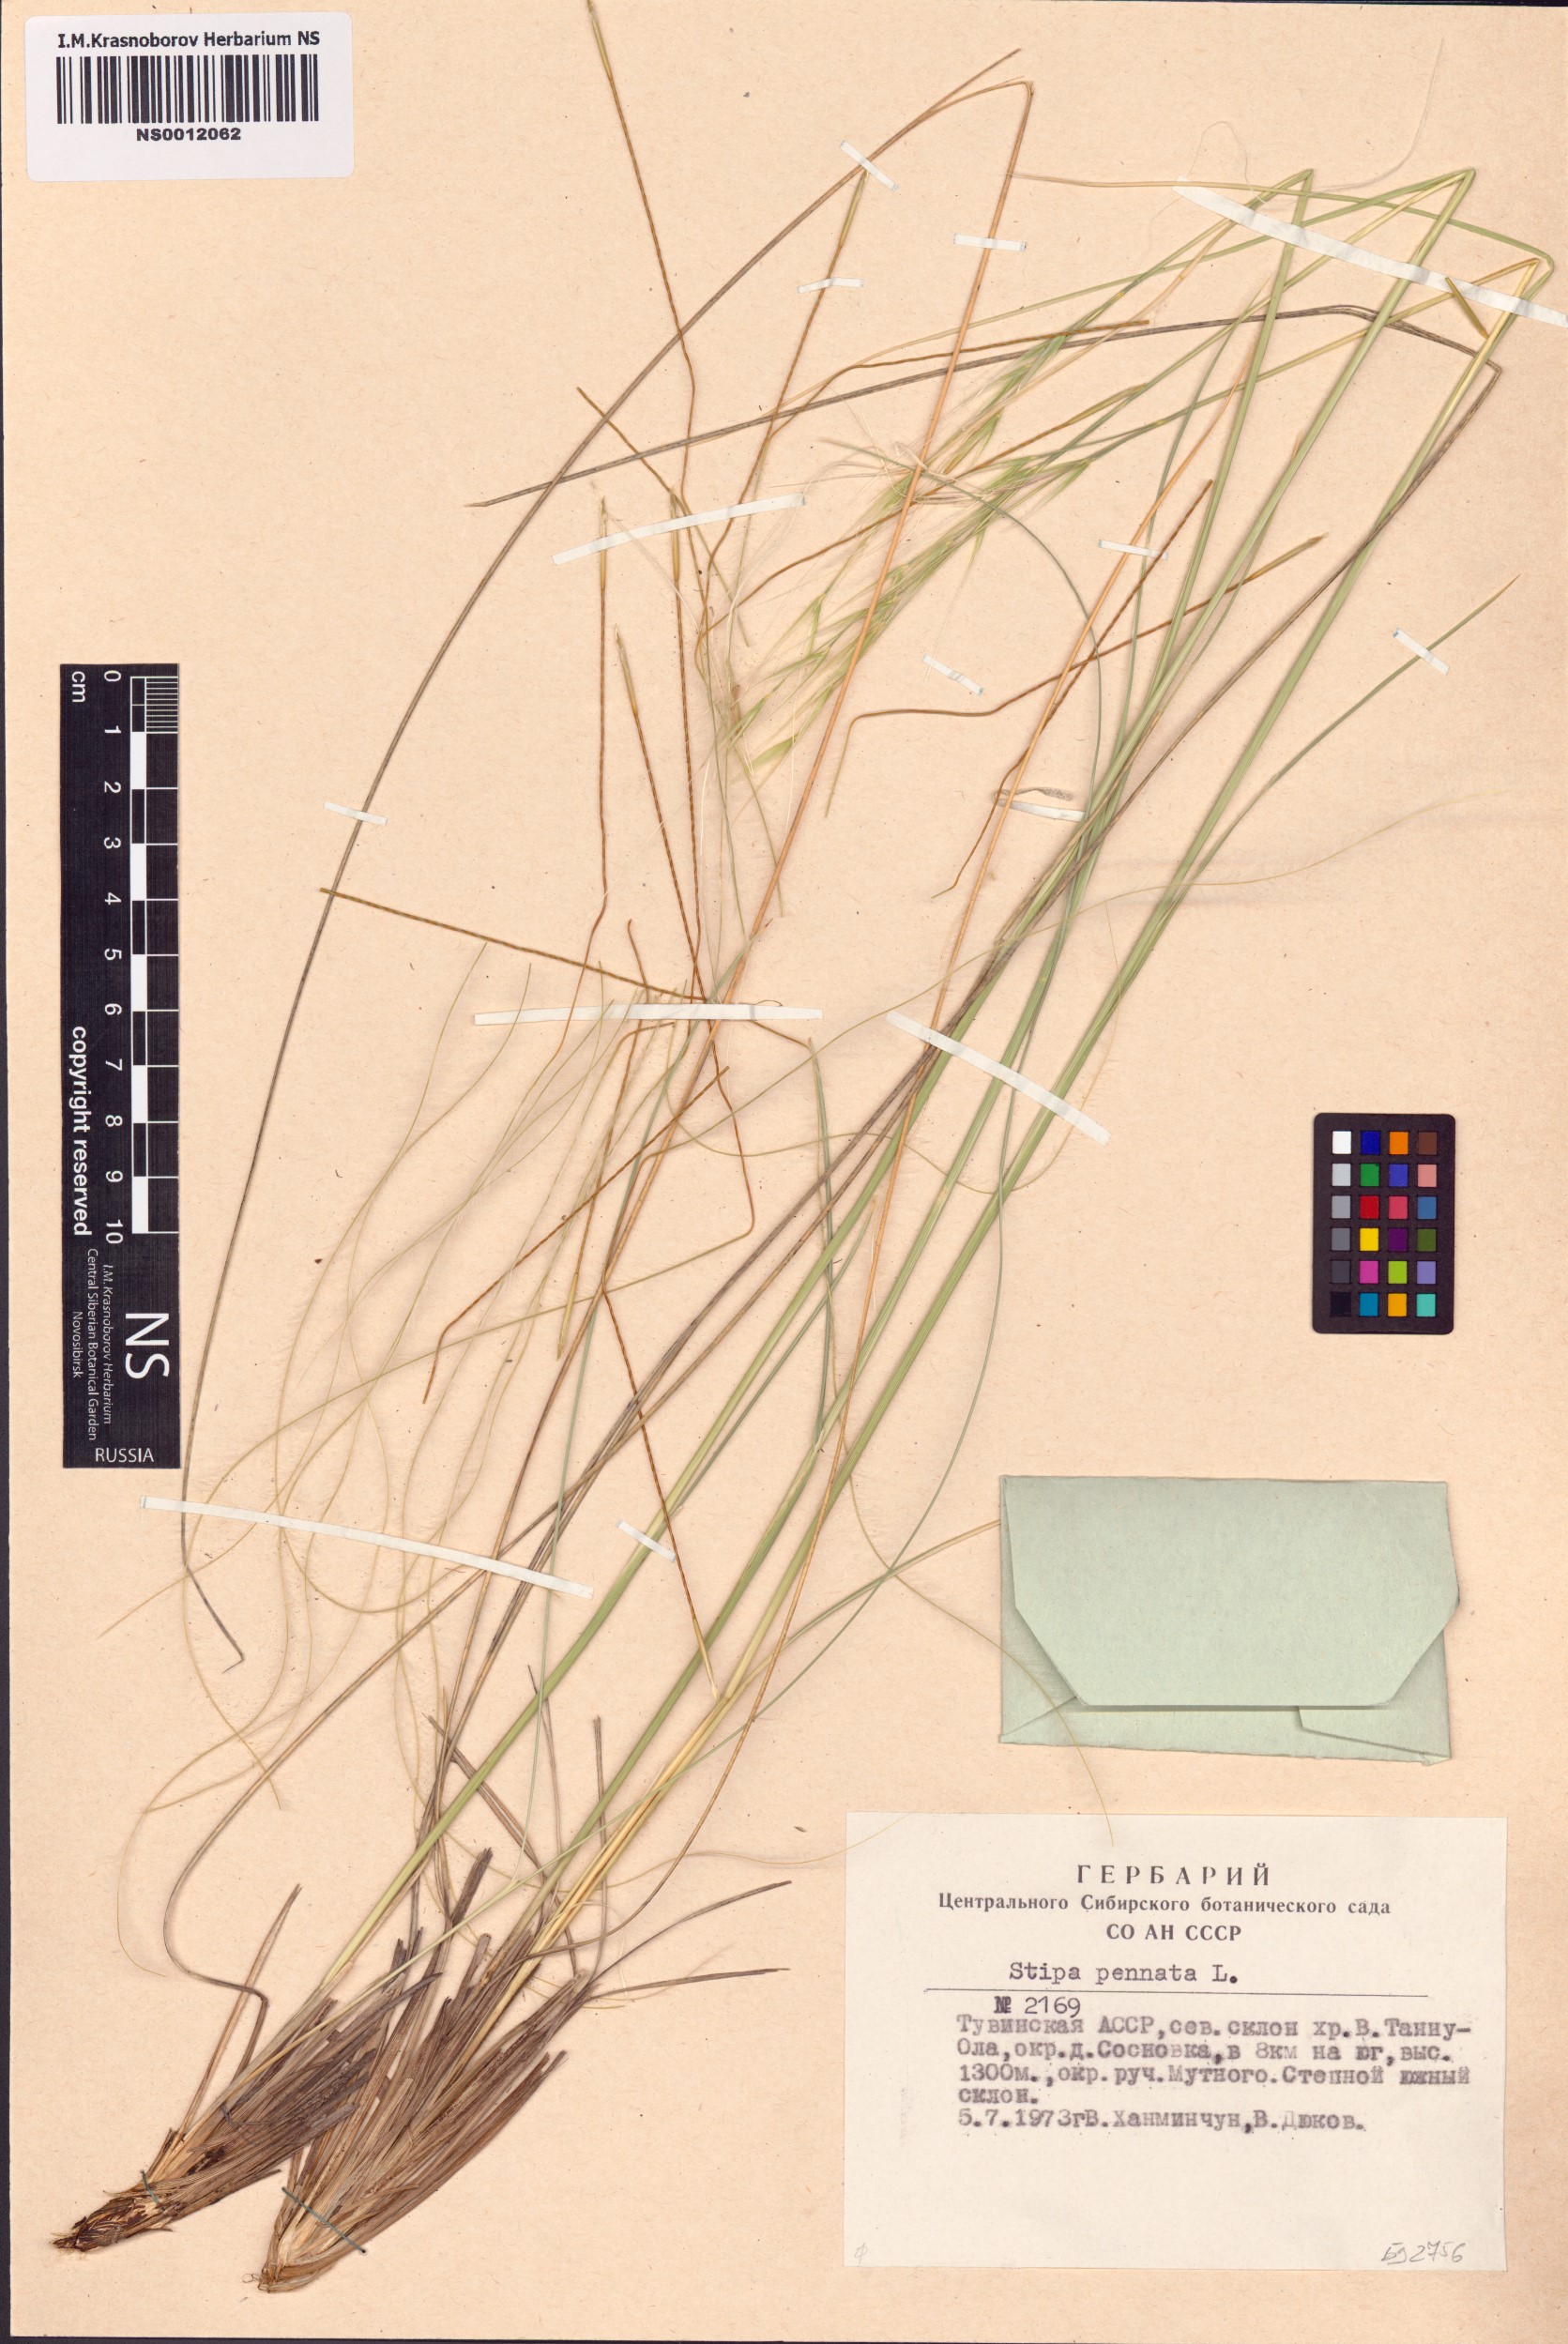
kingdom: Plantae
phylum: Tracheophyta
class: Liliopsida
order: Poales
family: Poaceae
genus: Stipa
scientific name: Stipa pennata
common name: European feather grass
